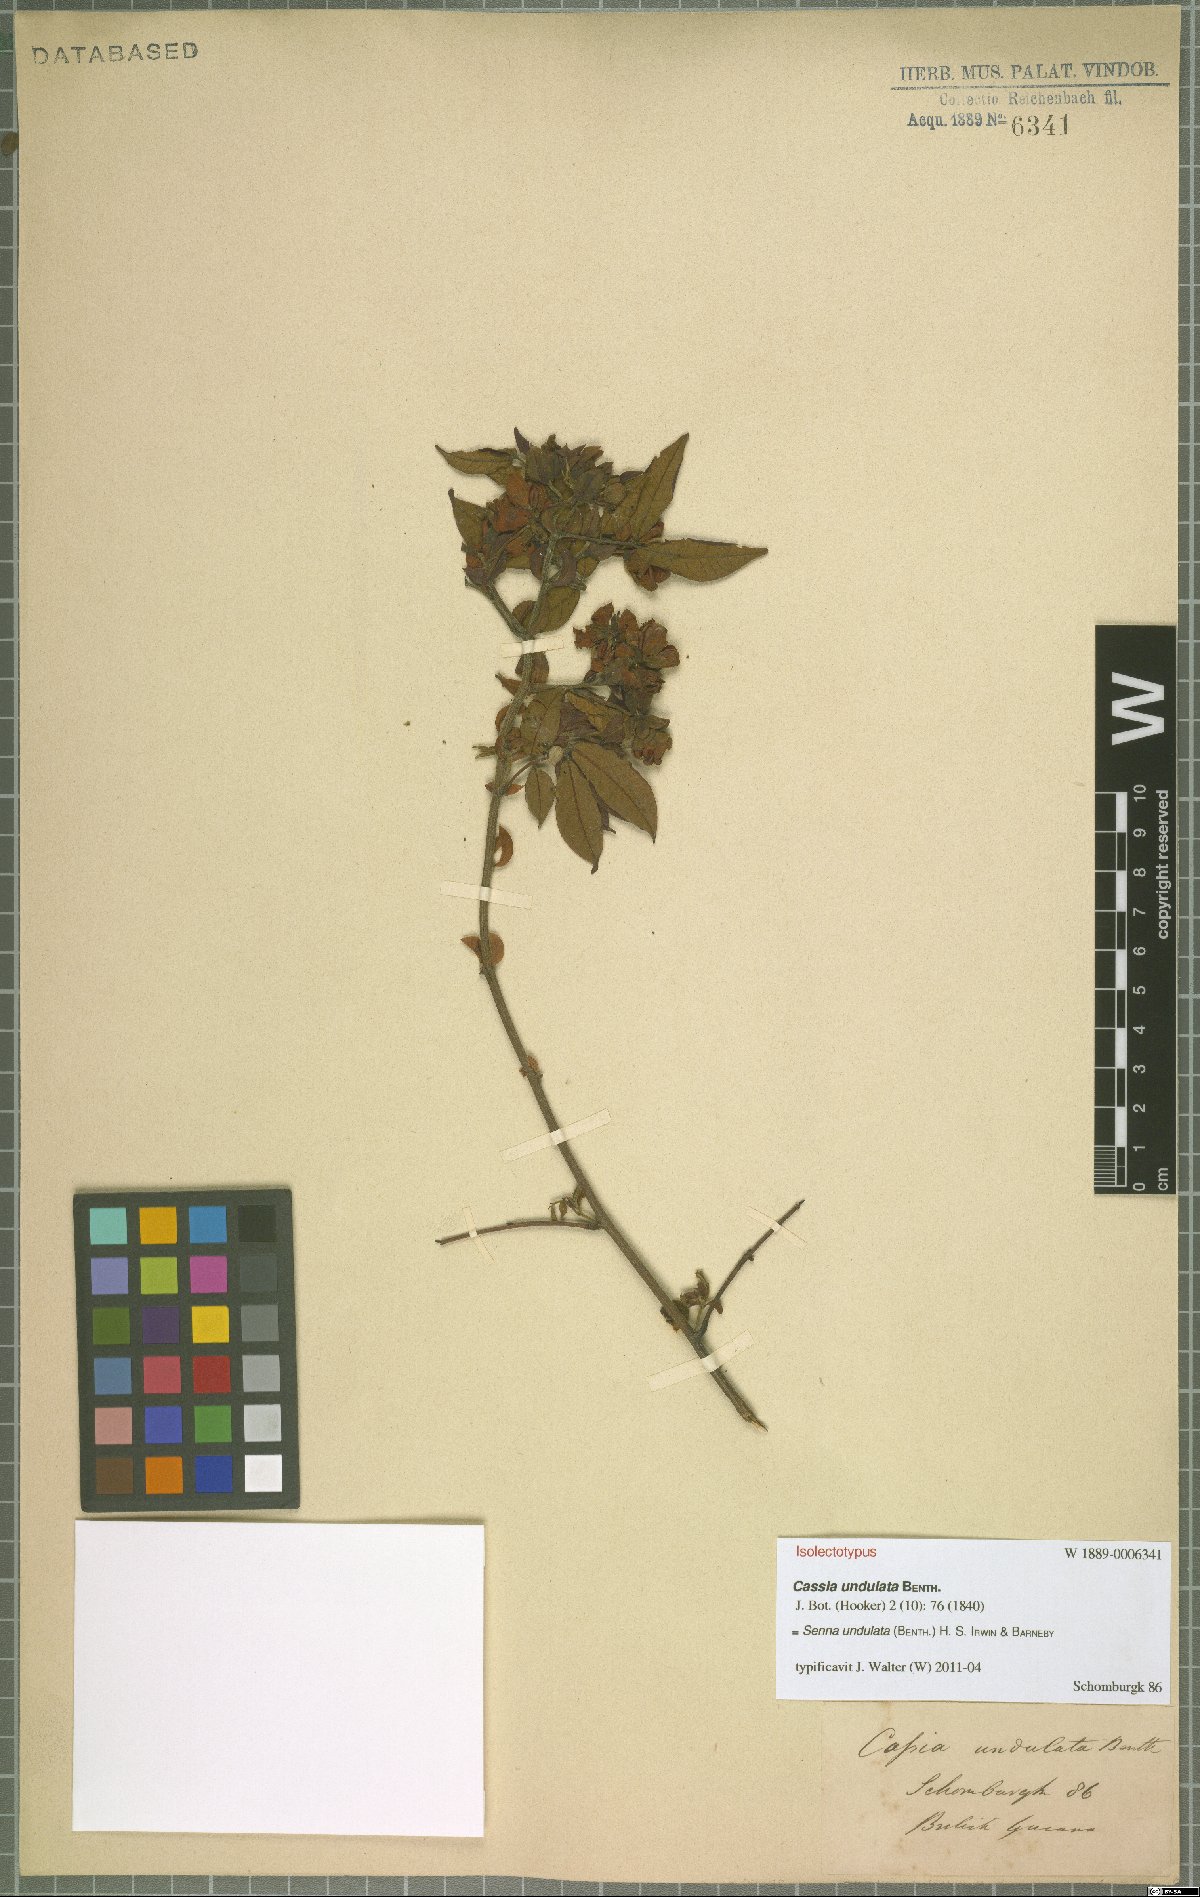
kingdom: Plantae
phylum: Tracheophyta
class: Magnoliopsida
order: Fabales
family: Fabaceae
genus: Senna
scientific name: Senna undulata
